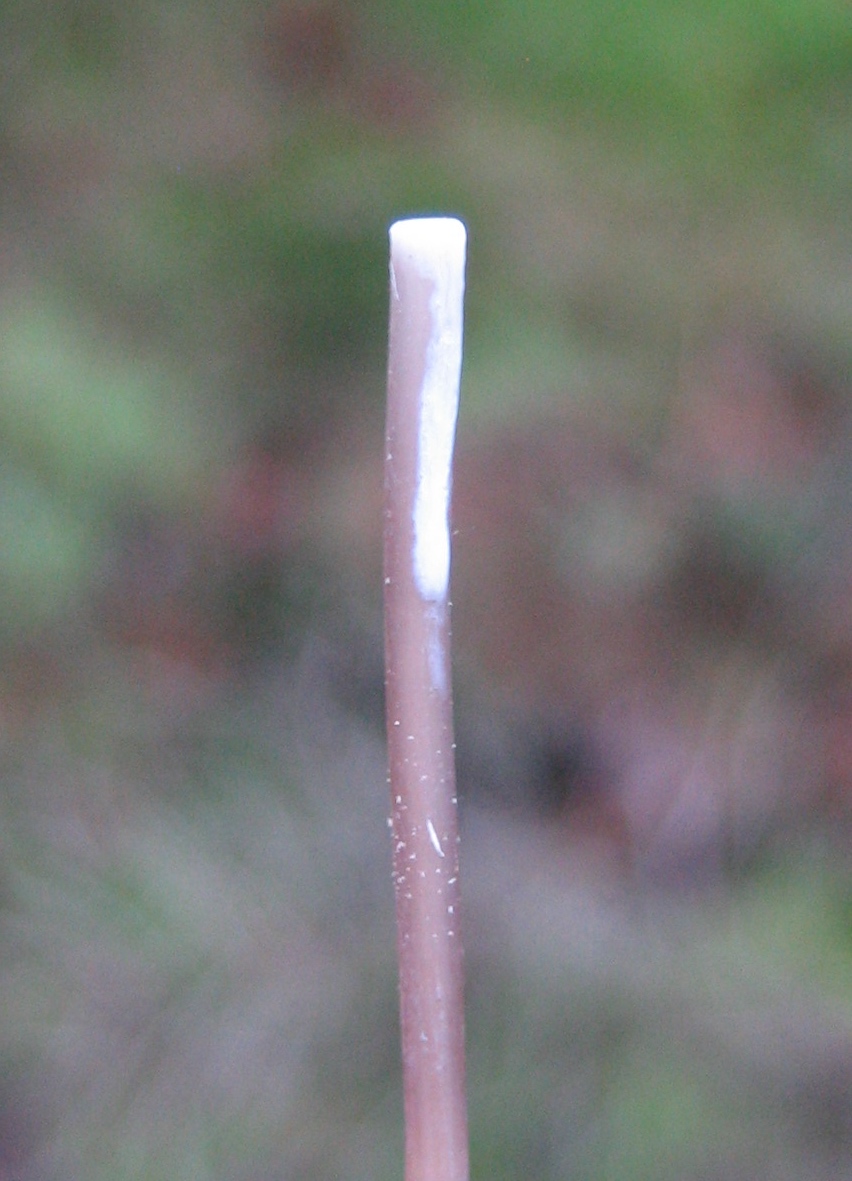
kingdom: Fungi
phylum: Basidiomycota
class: Agaricomycetes
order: Agaricales
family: Mycenaceae
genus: Mycena
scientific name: Mycena galopus
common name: hvidmælket huesvamp
